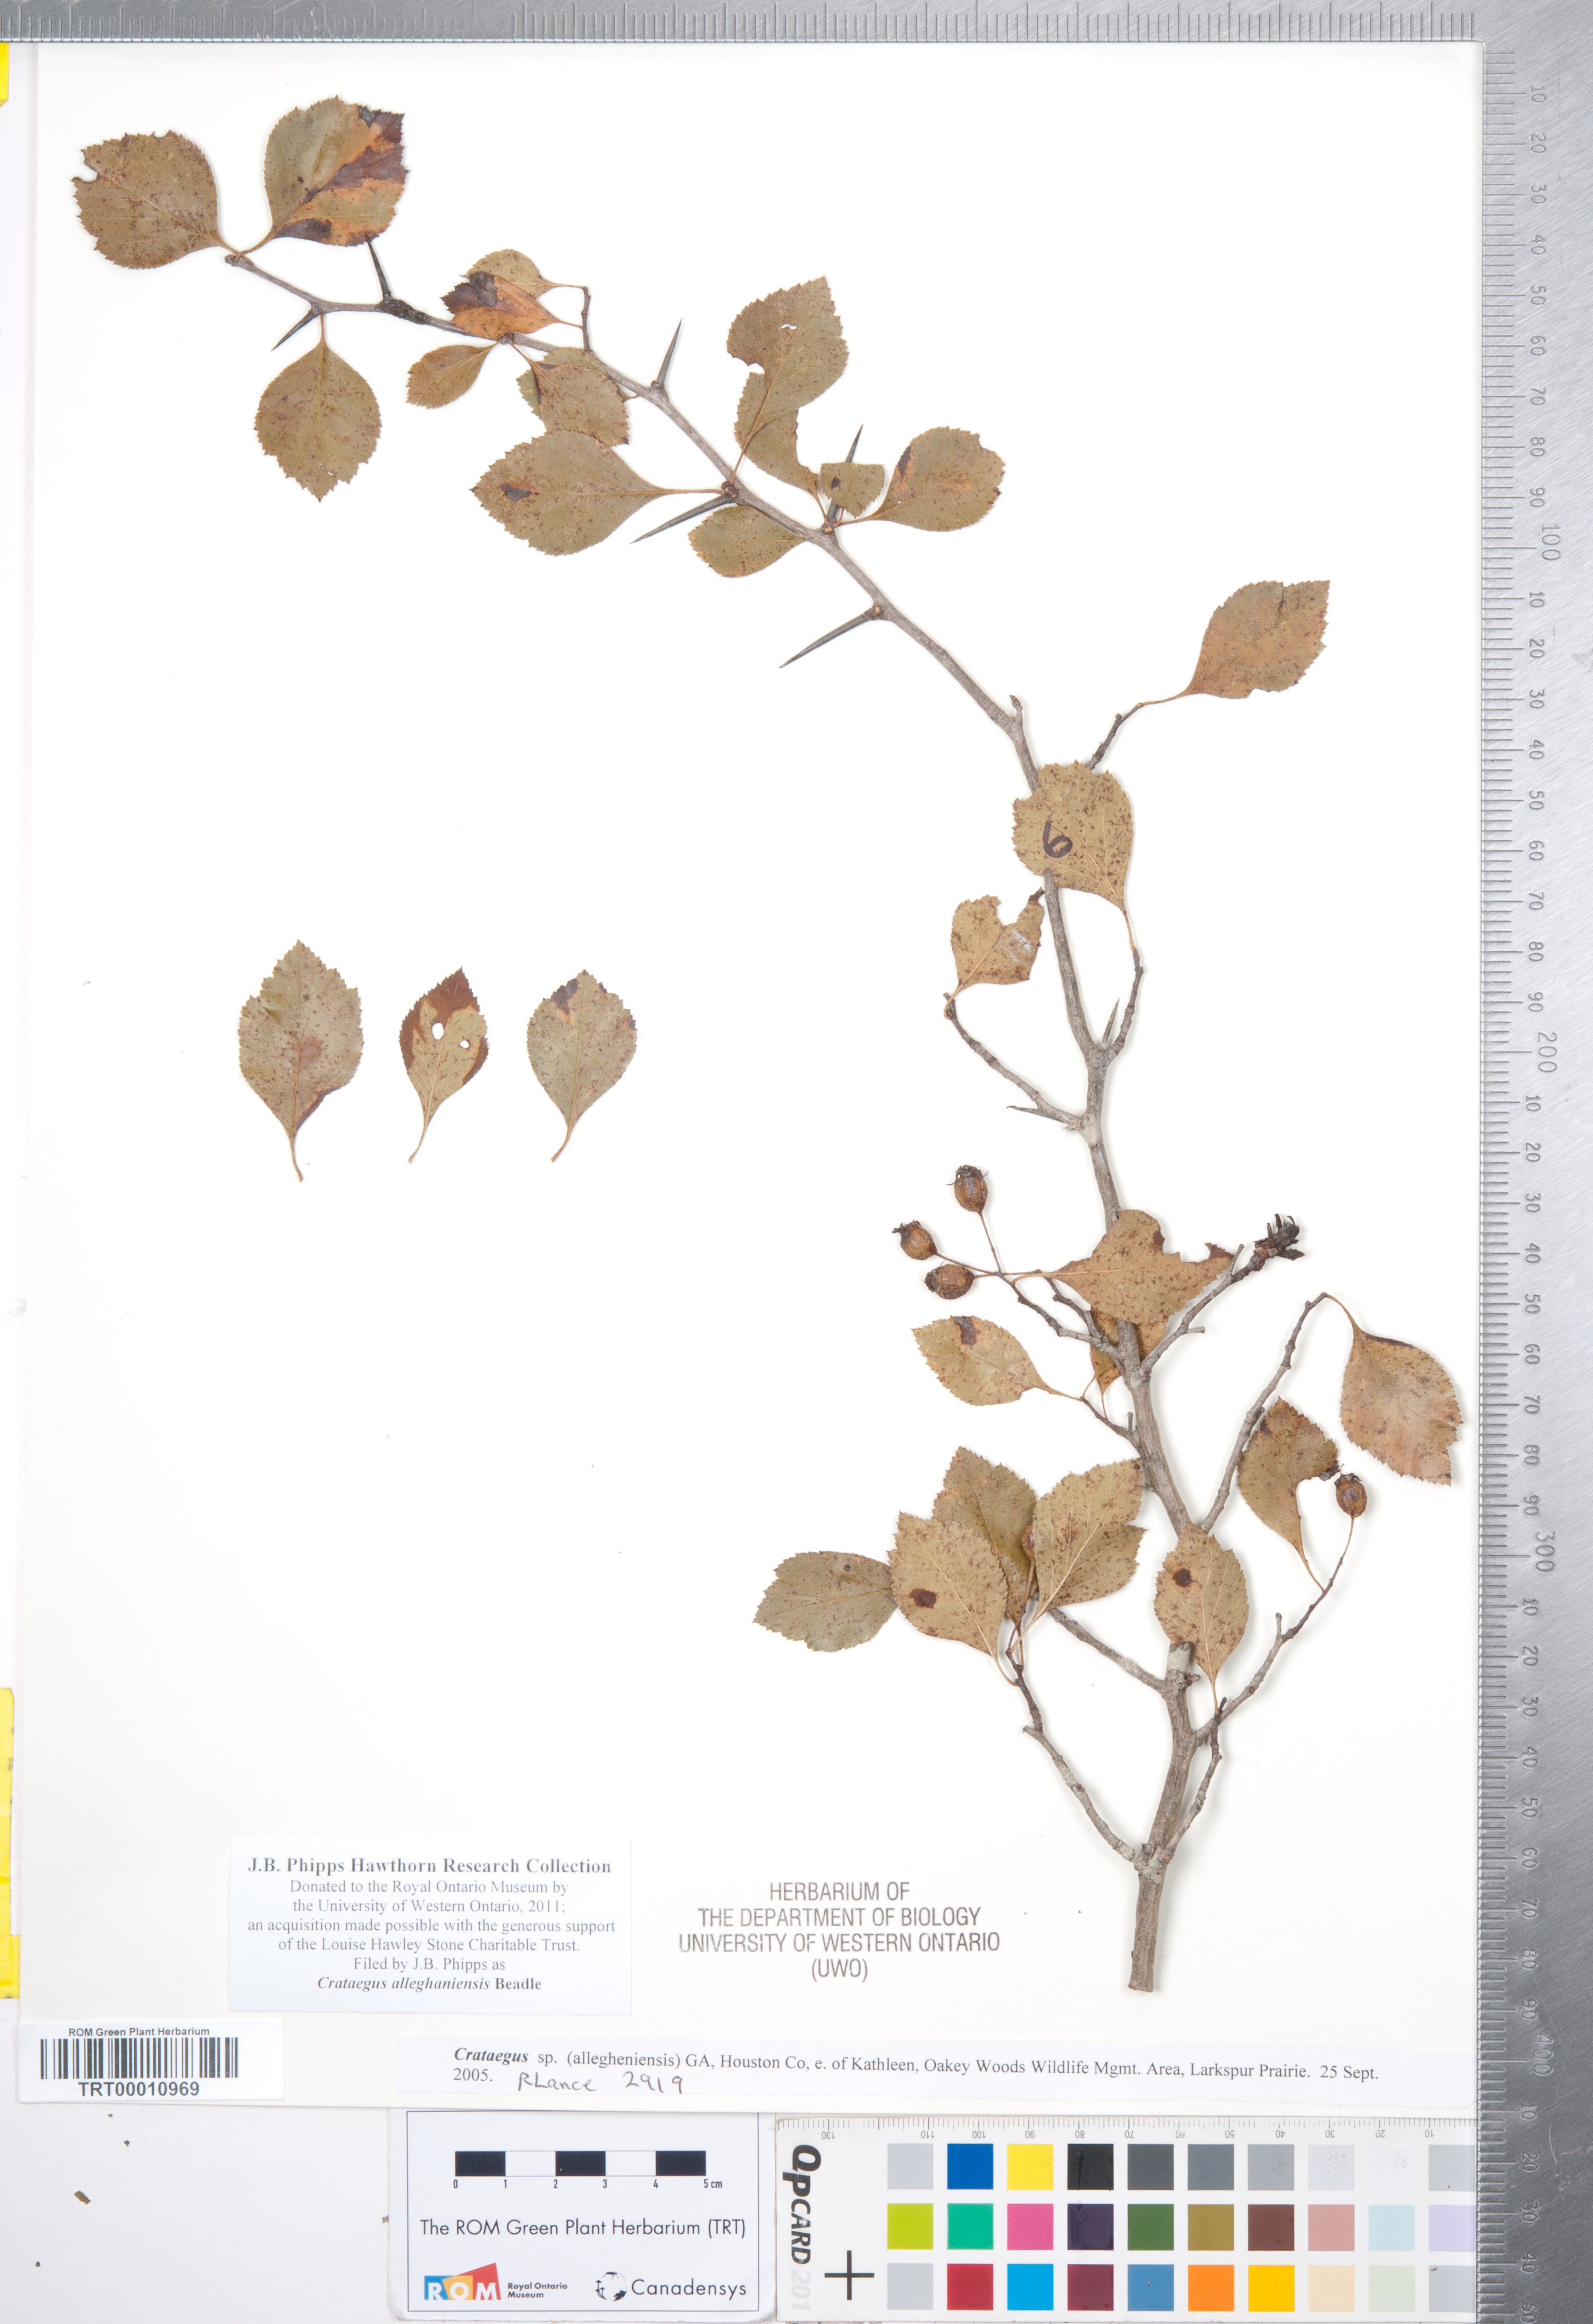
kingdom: Plantae
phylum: Tracheophyta
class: Magnoliopsida
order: Rosales
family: Rosaceae
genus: Crataegus
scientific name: Crataegus allegheniensis
